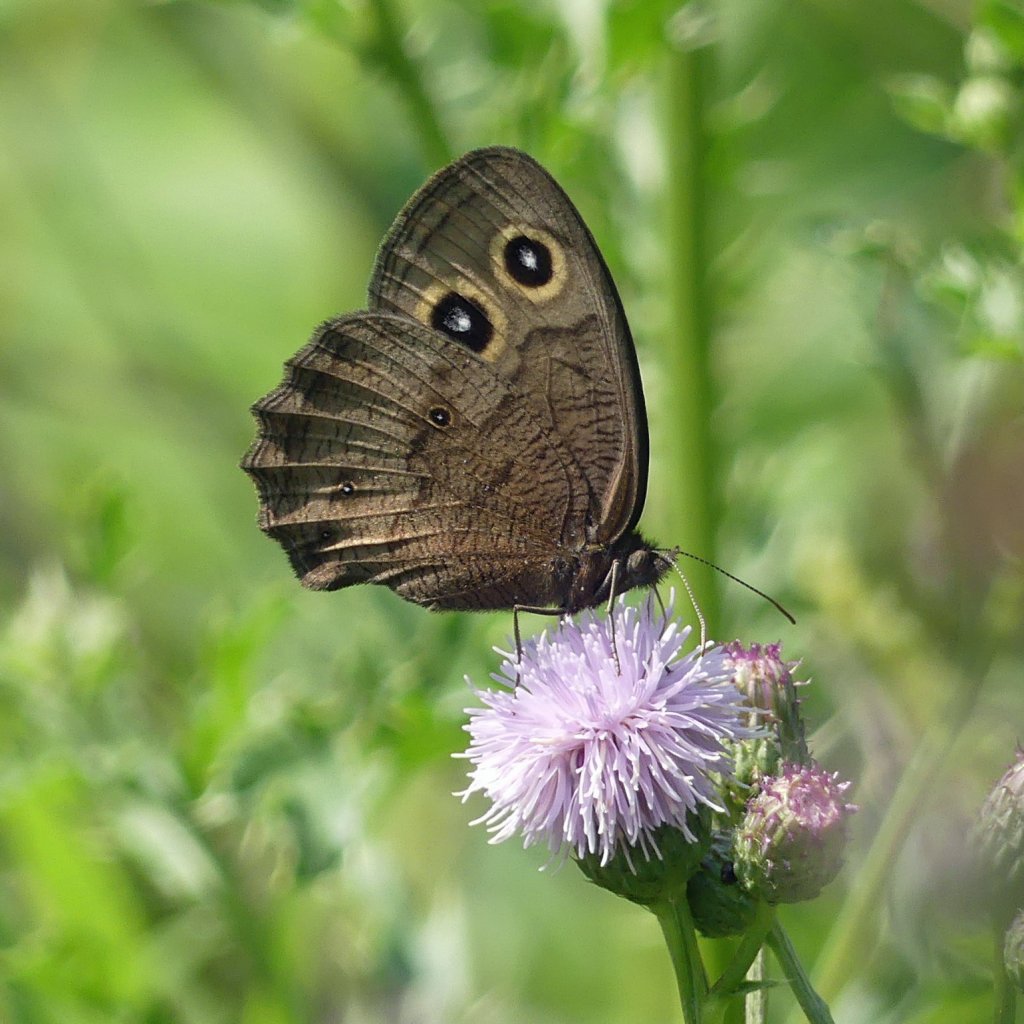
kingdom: Animalia
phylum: Arthropoda
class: Insecta
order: Lepidoptera
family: Nymphalidae
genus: Cercyonis
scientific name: Cercyonis pegala
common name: Common Wood-Nymph
